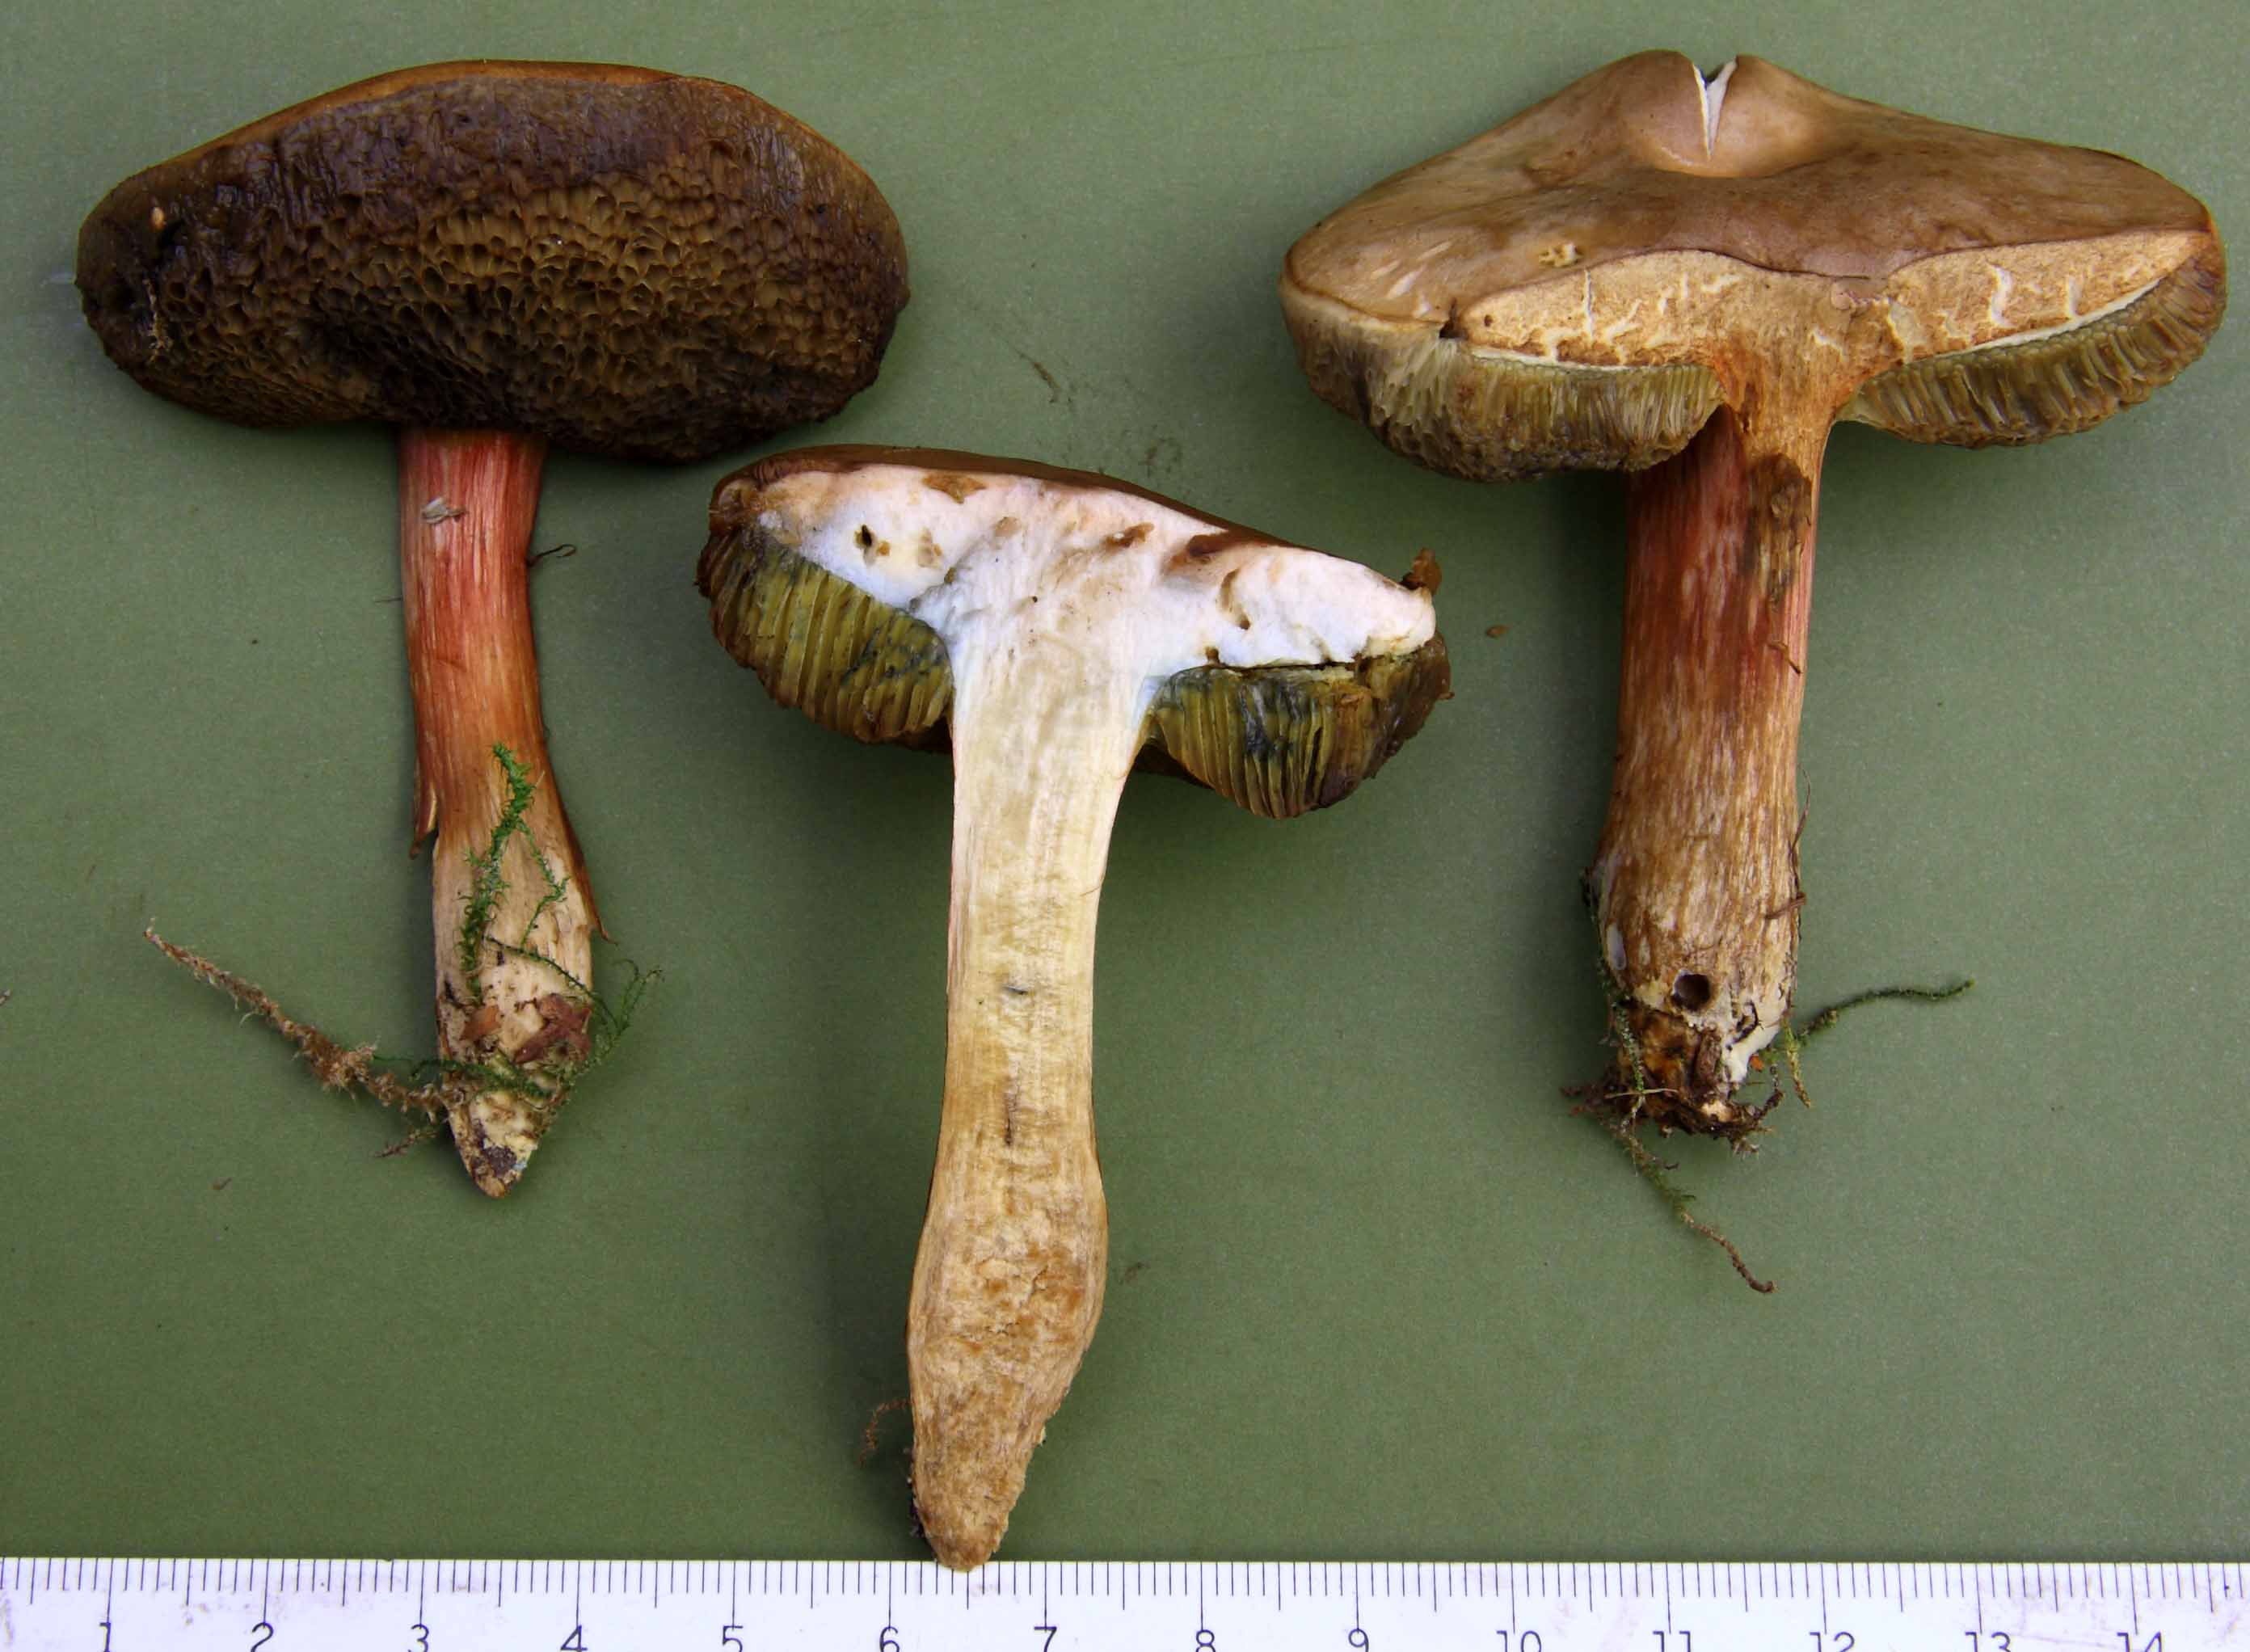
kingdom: Fungi
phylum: Basidiomycota
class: Agaricomycetes
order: Boletales
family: Boletaceae
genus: Hortiboletus
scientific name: Hortiboletus bubalinus
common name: aurora-rørhat
